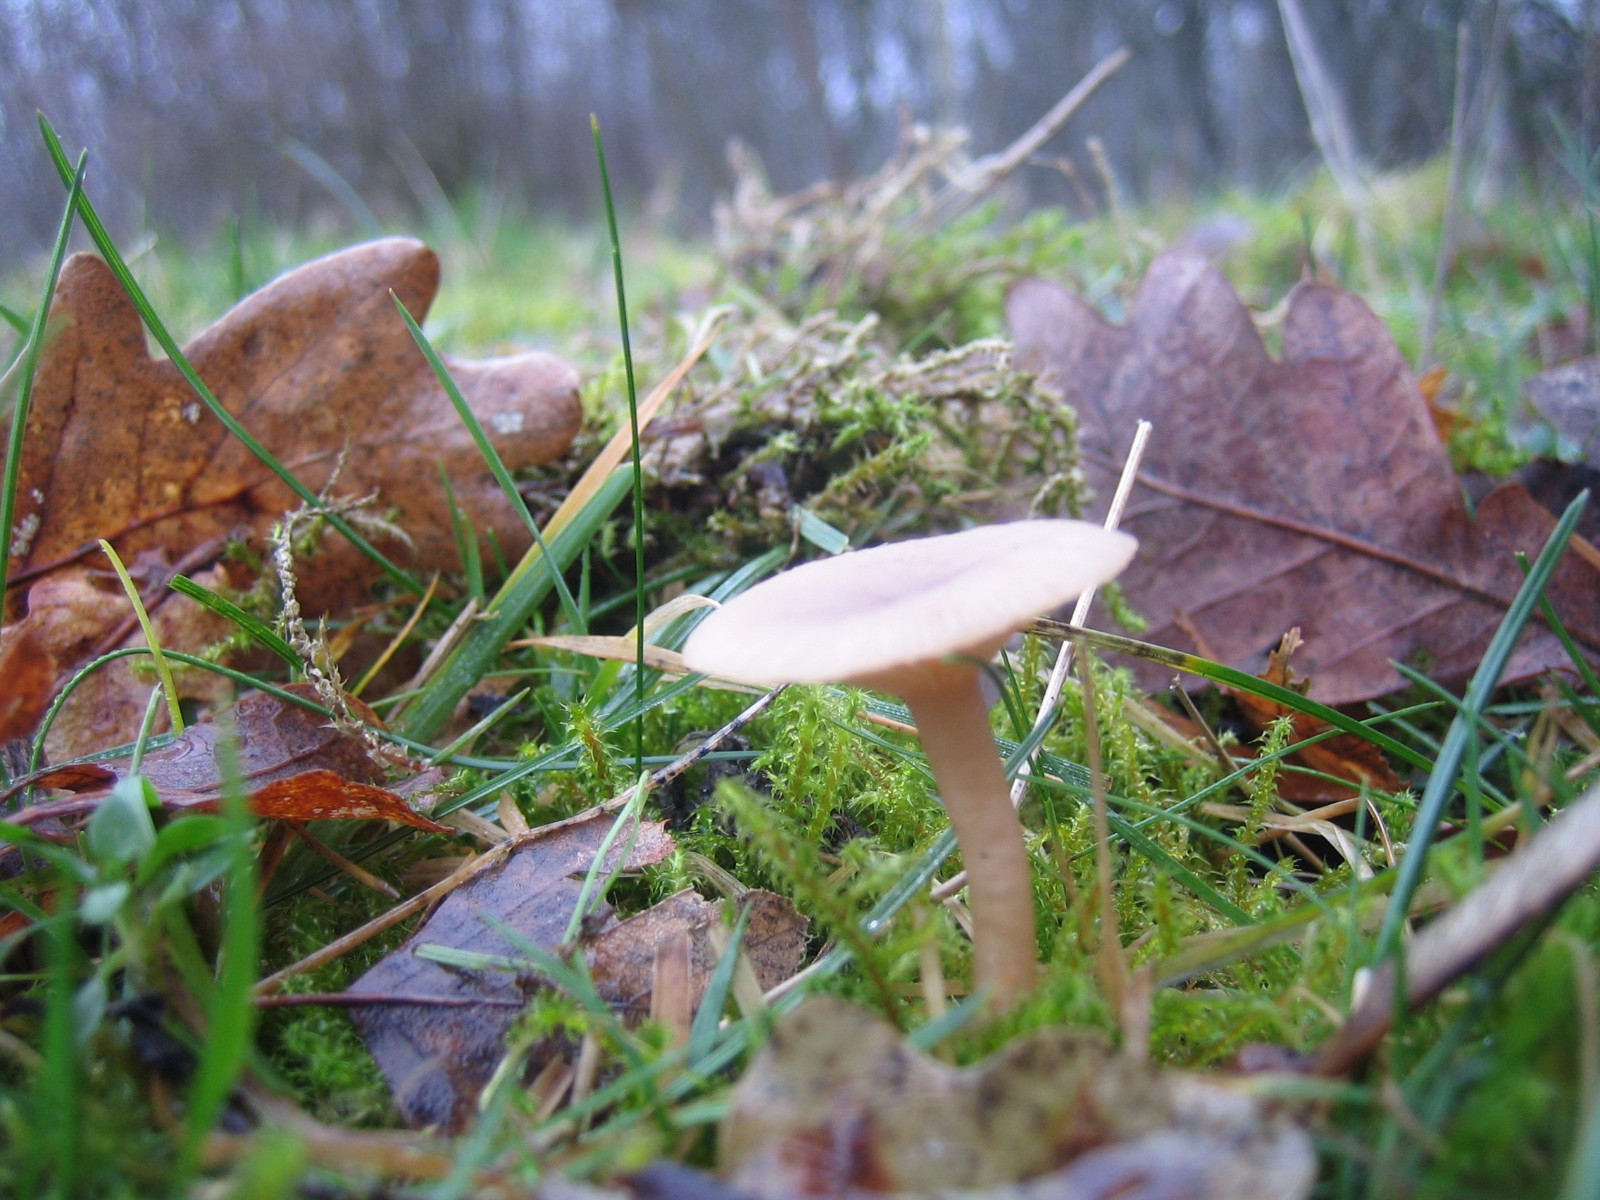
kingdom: Fungi
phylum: Basidiomycota
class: Agaricomycetes
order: Agaricales
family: Tricholomataceae
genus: Clitocybe
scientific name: Clitocybe fragrans
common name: vellugtende tragthat
